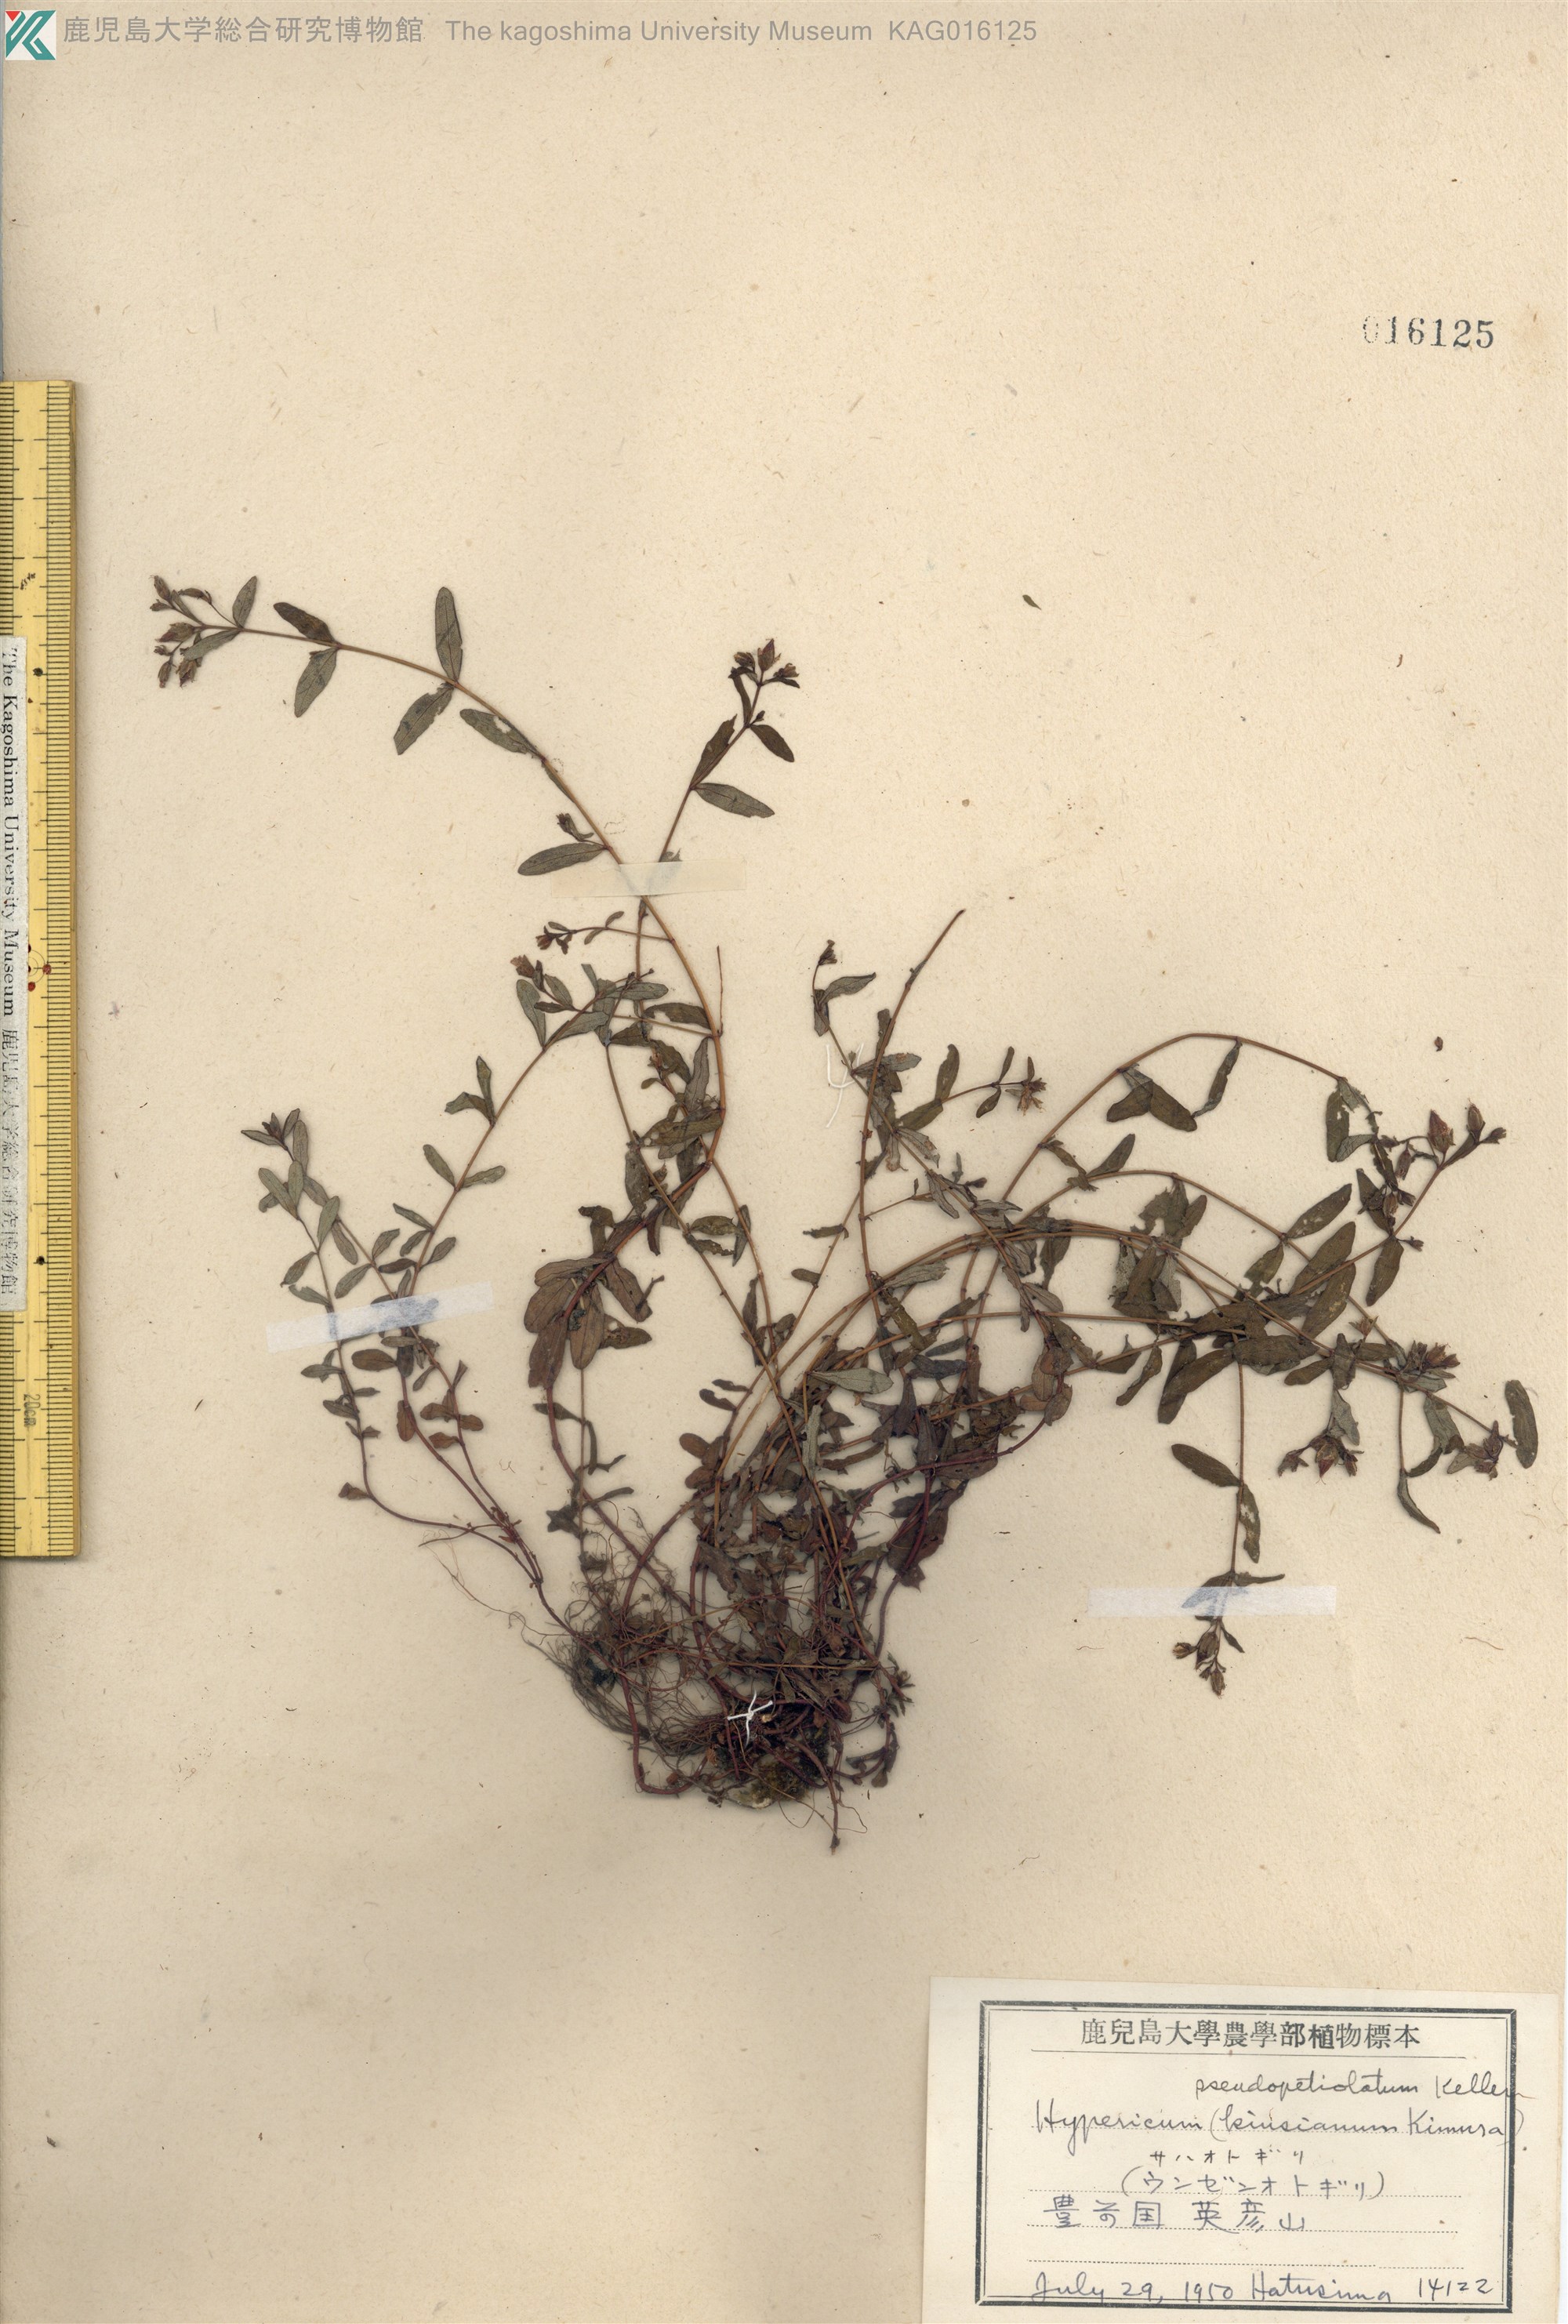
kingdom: Plantae
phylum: Tracheophyta
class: Magnoliopsida
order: Malpighiales
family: Hypericaceae
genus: Hypericum
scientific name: Hypericum pseudopetiolatum
